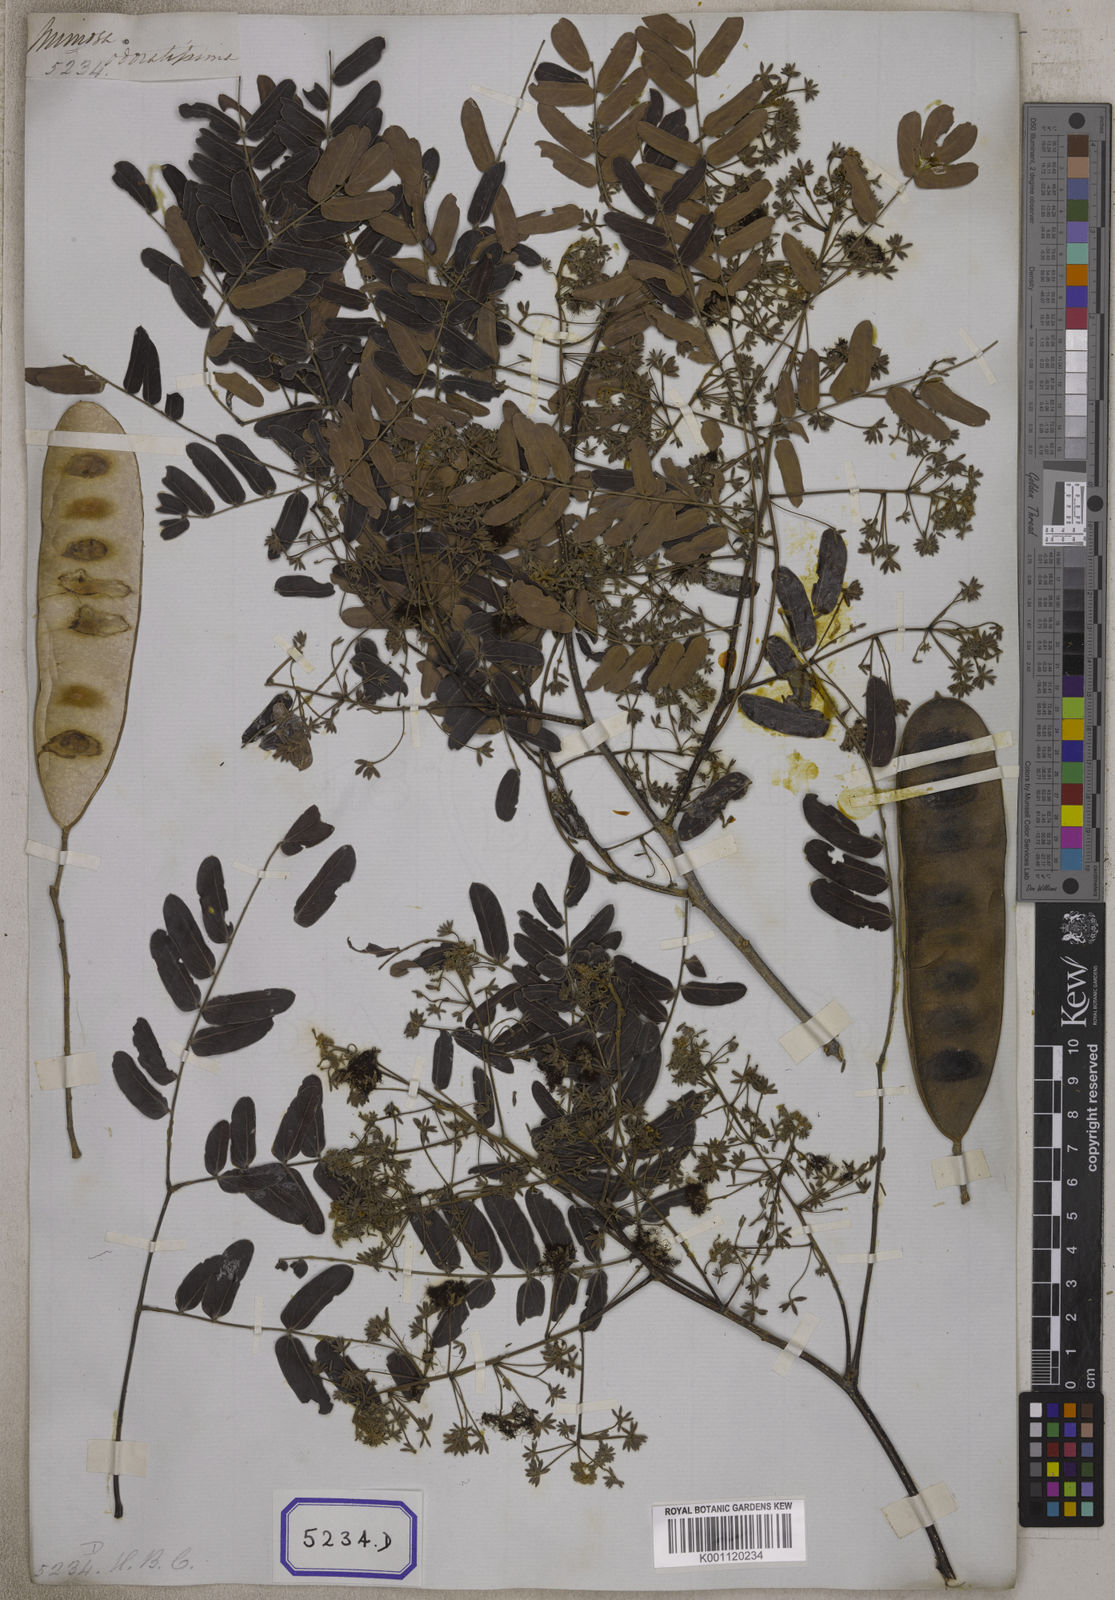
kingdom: Plantae
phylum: Tracheophyta
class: Magnoliopsida
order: Fabales
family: Fabaceae
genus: Albizia
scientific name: Albizia odoratissima
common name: Ceylon rosewood
